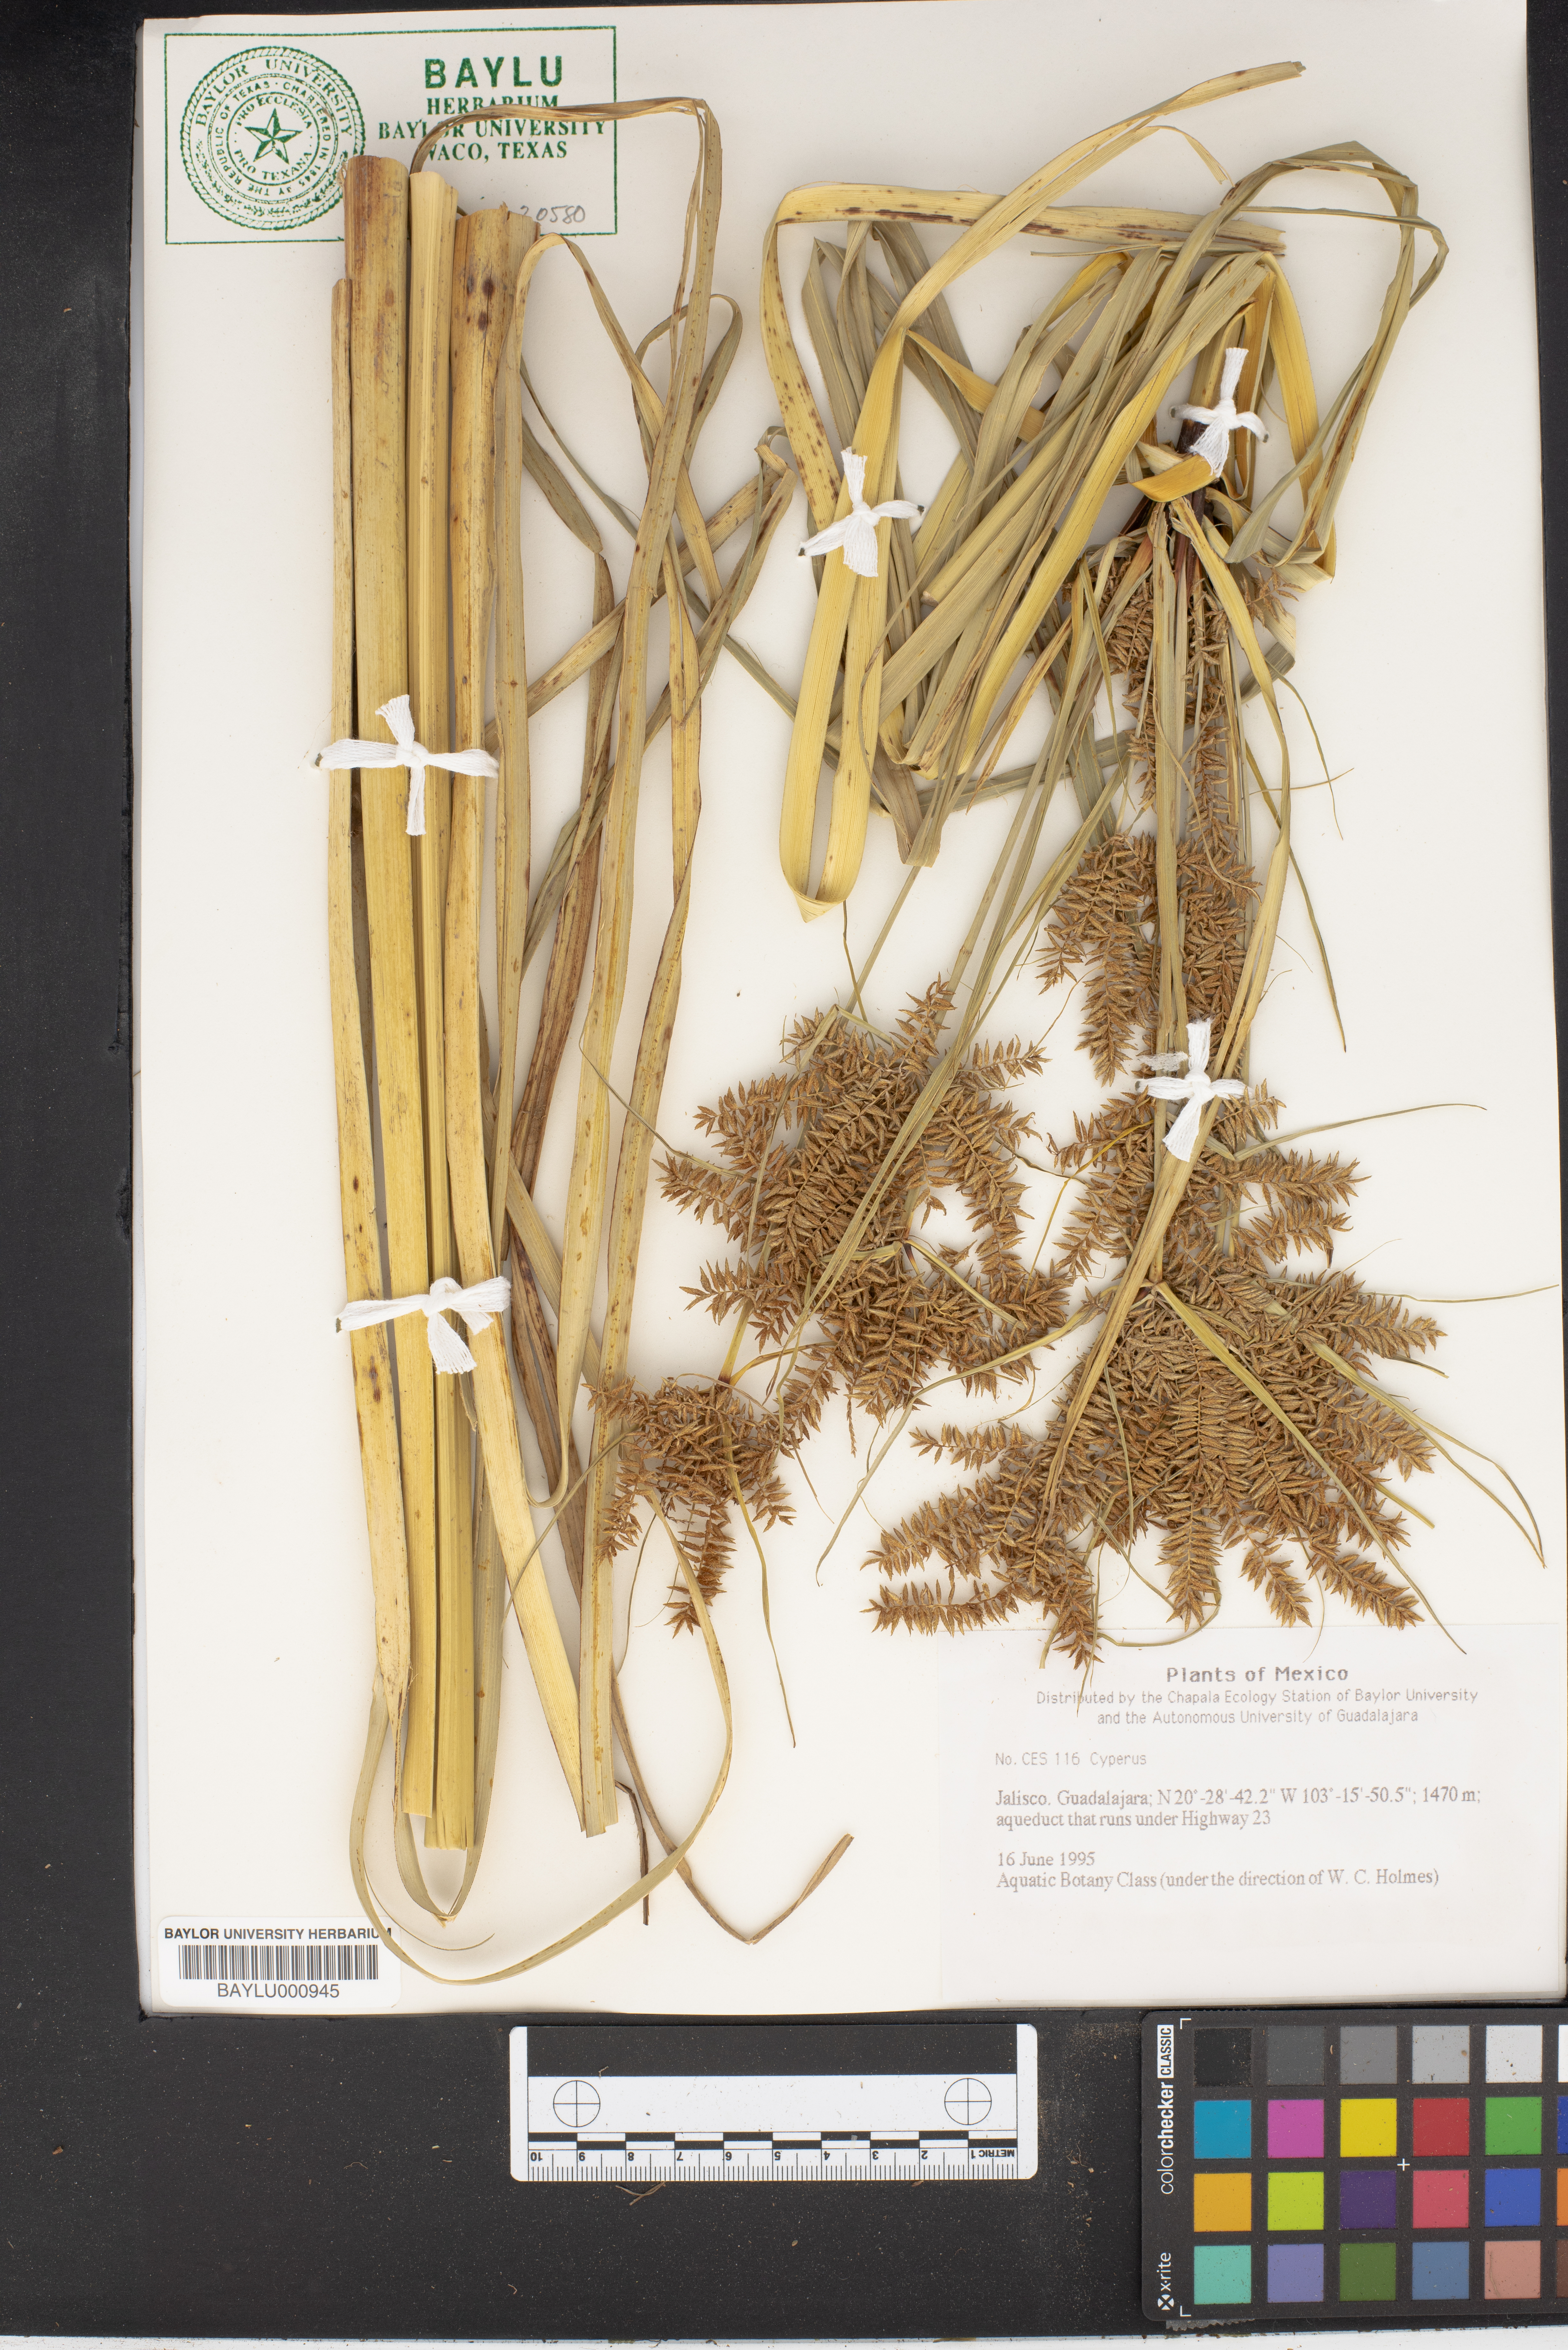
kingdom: Plantae
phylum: Tracheophyta
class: Liliopsida
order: Poales
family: Cyperaceae
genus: Cyperus
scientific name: Cyperus
